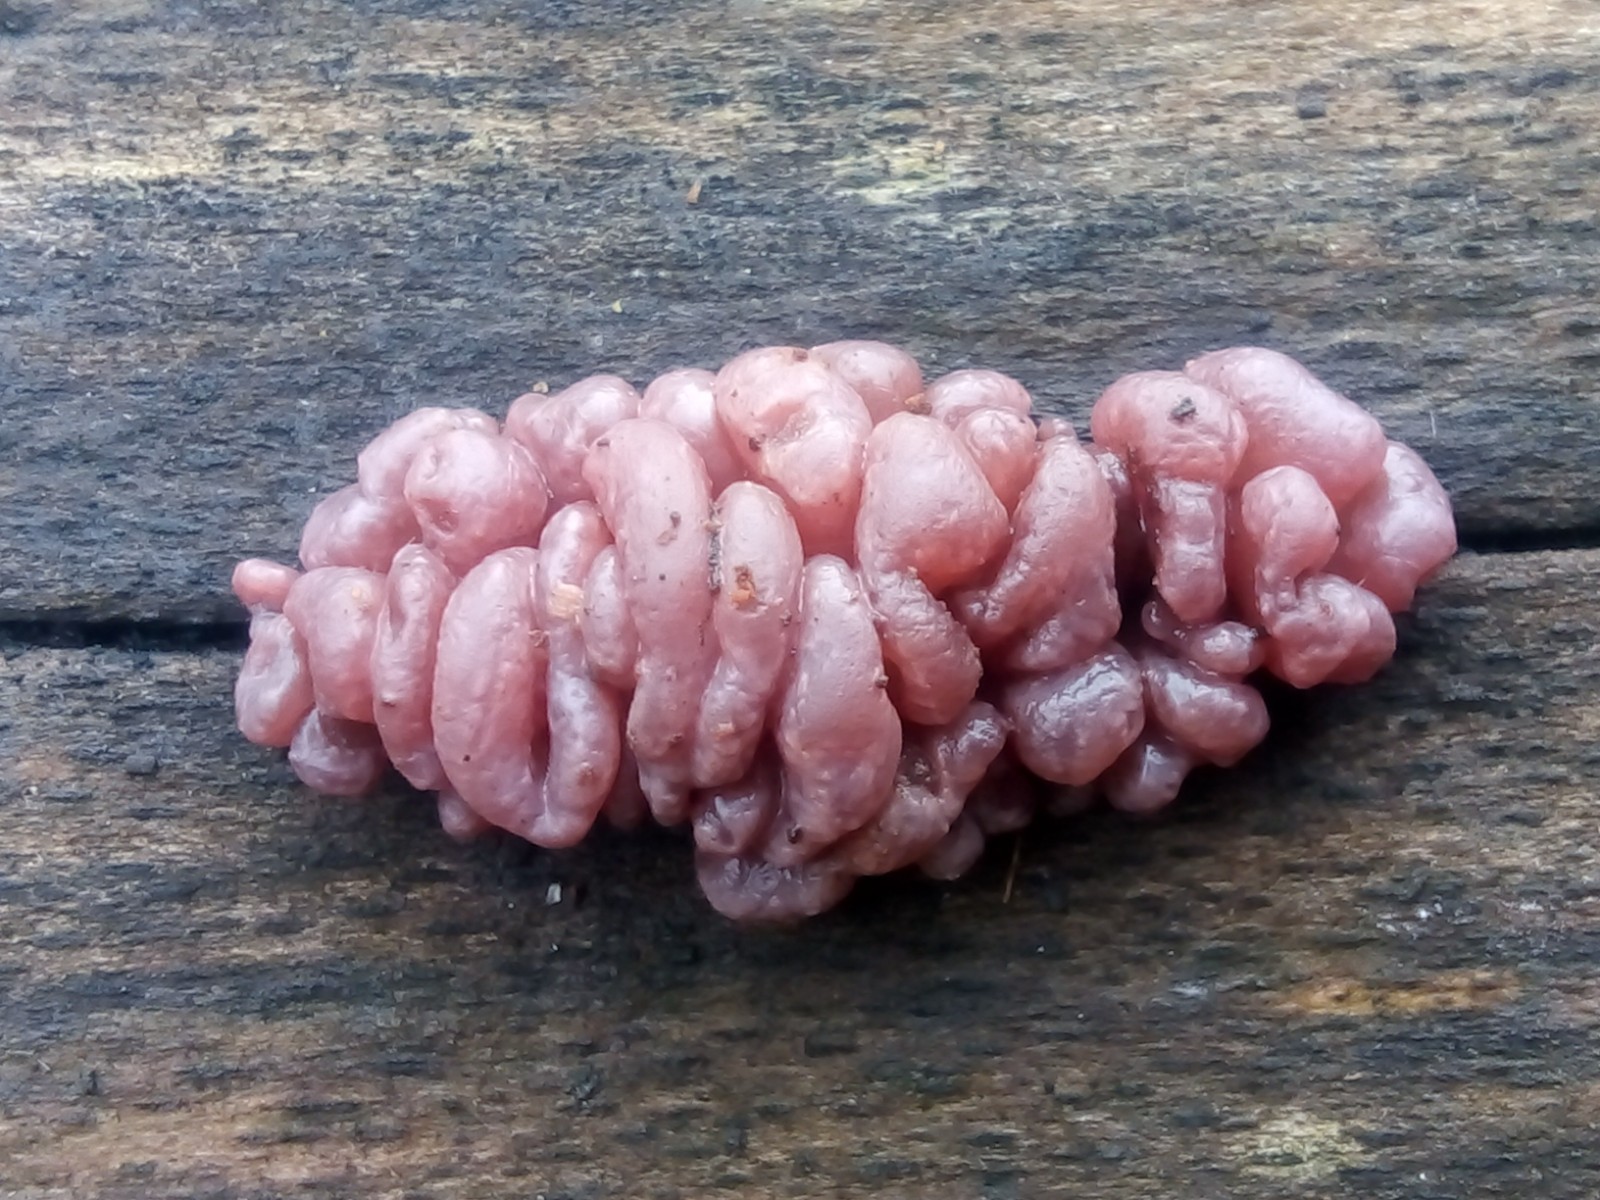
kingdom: Fungi
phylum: Ascomycota
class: Leotiomycetes
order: Helotiales
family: Gelatinodiscaceae
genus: Ascocoryne
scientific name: Ascocoryne sarcoides
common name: rødlilla sejskive
